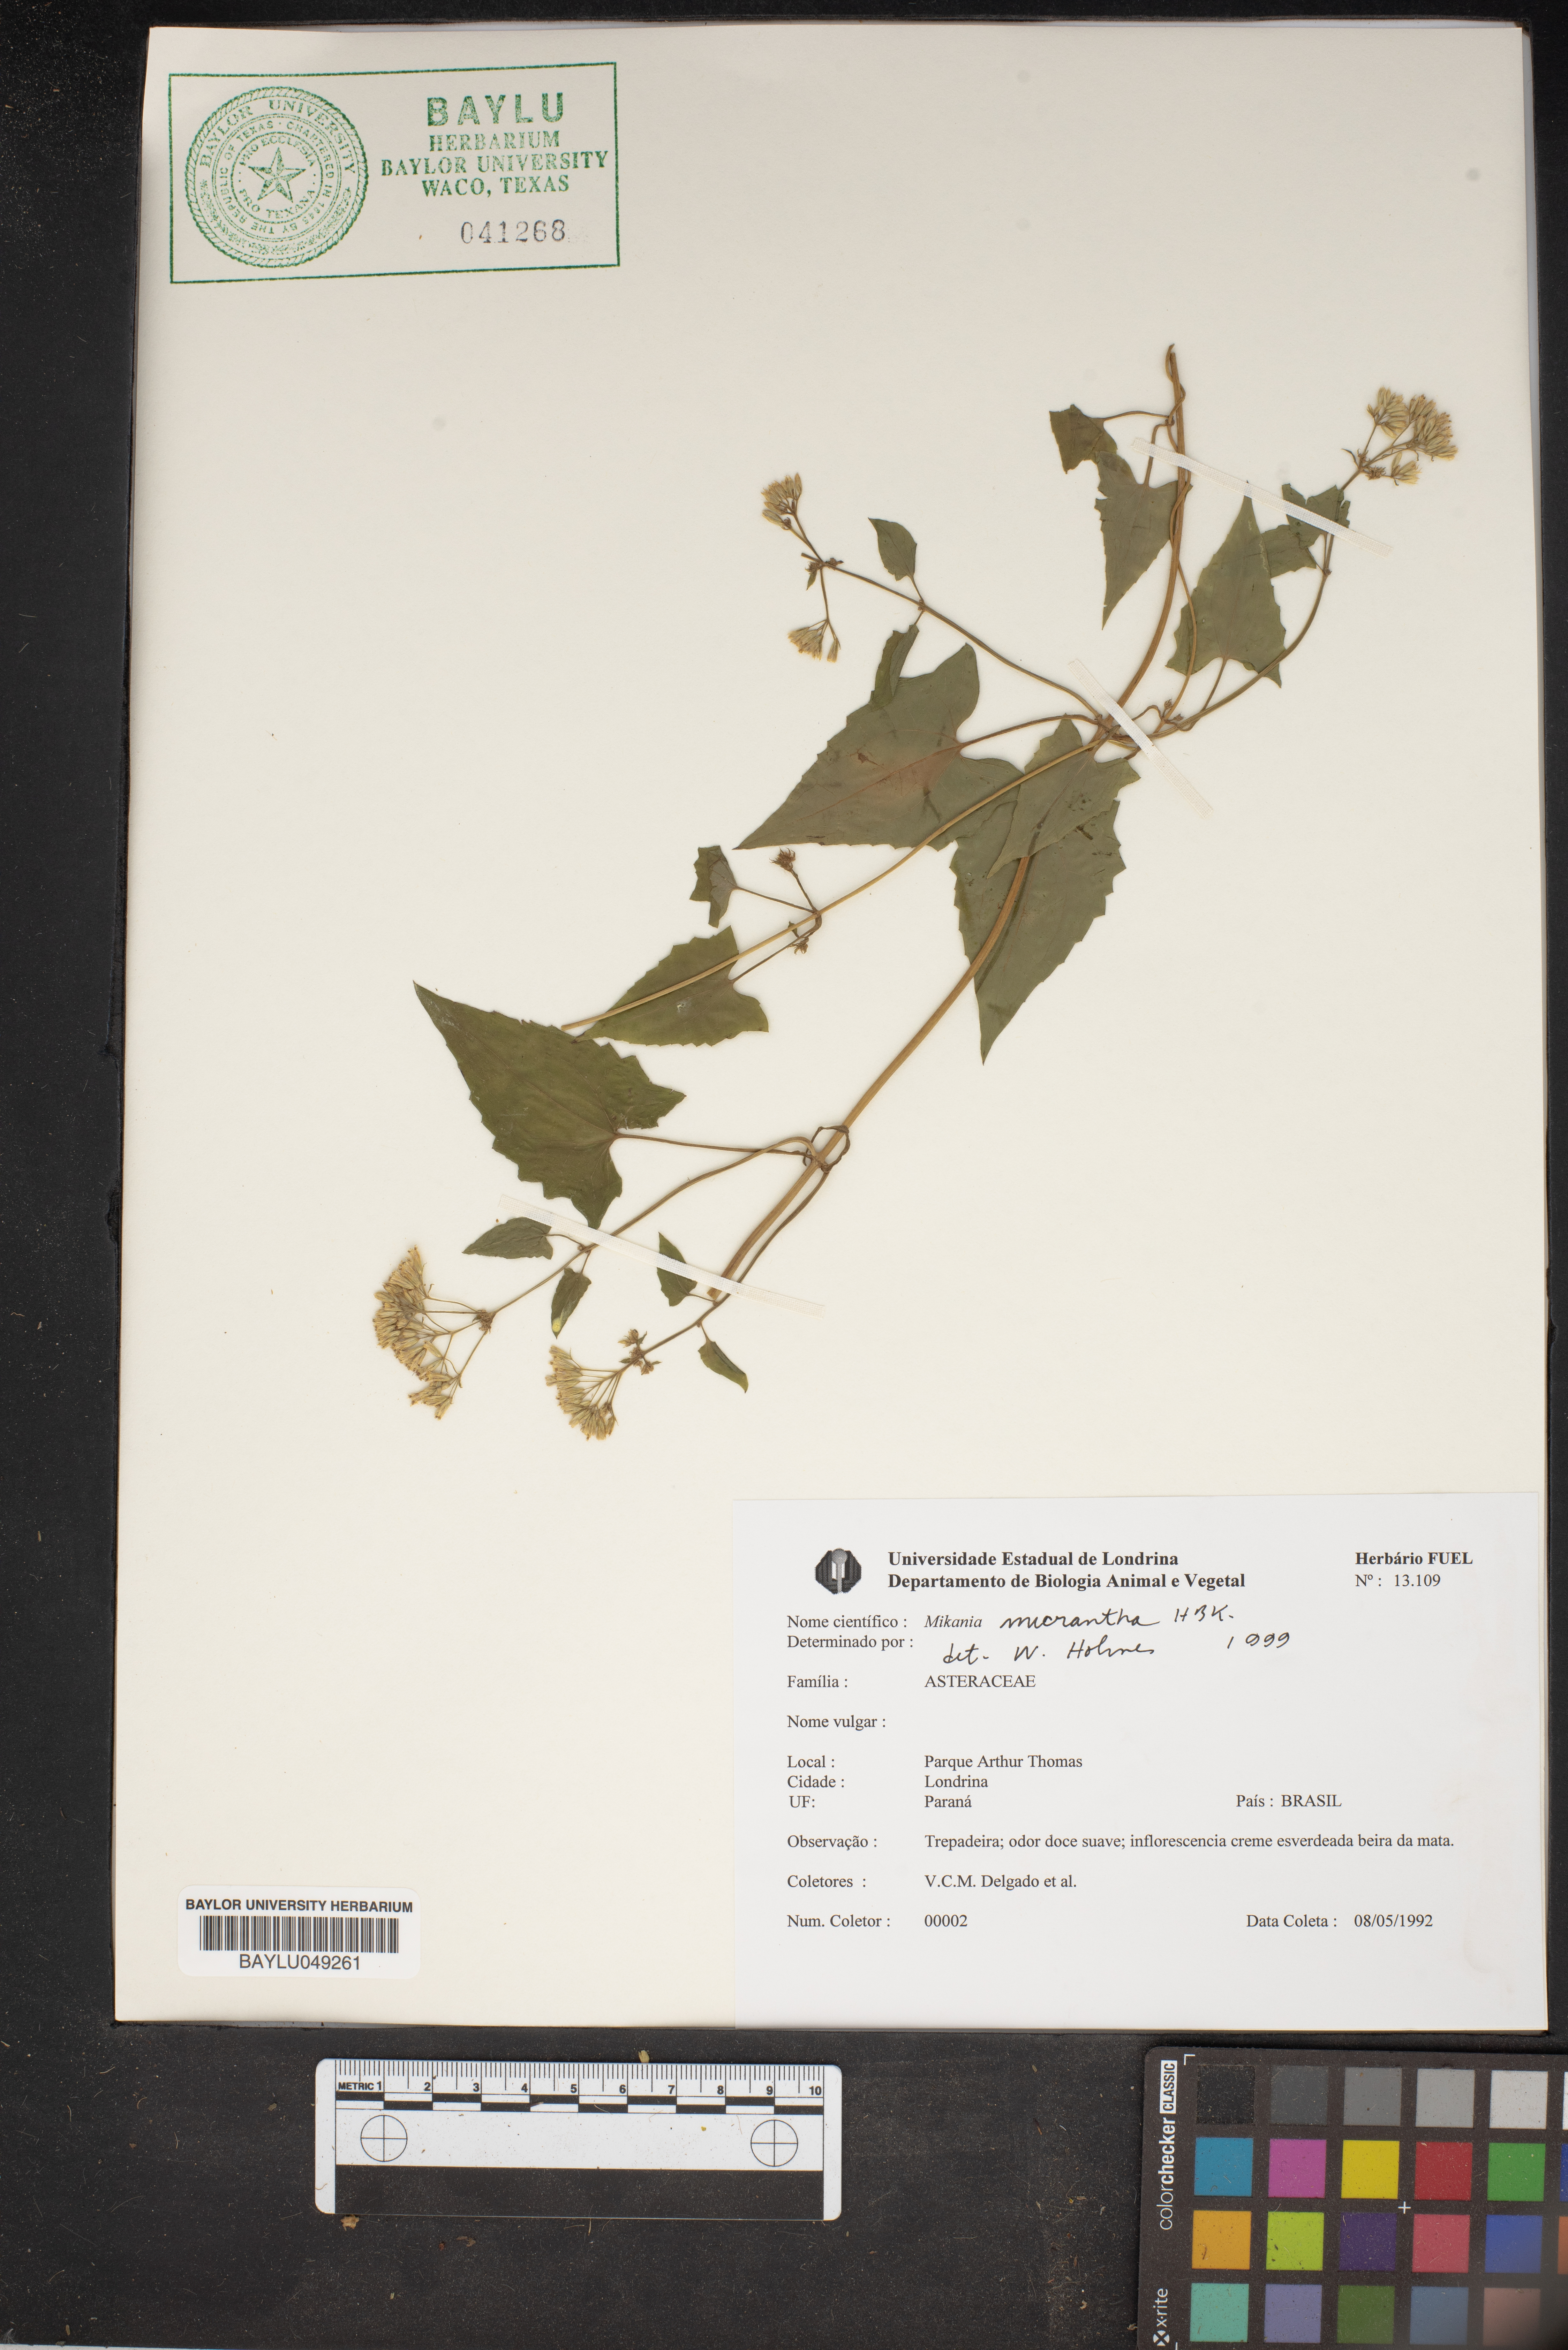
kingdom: Plantae
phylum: Tracheophyta
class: Magnoliopsida
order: Asterales
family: Asteraceae
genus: Mikania
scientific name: Mikania micrantha
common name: Mile-a-minute
